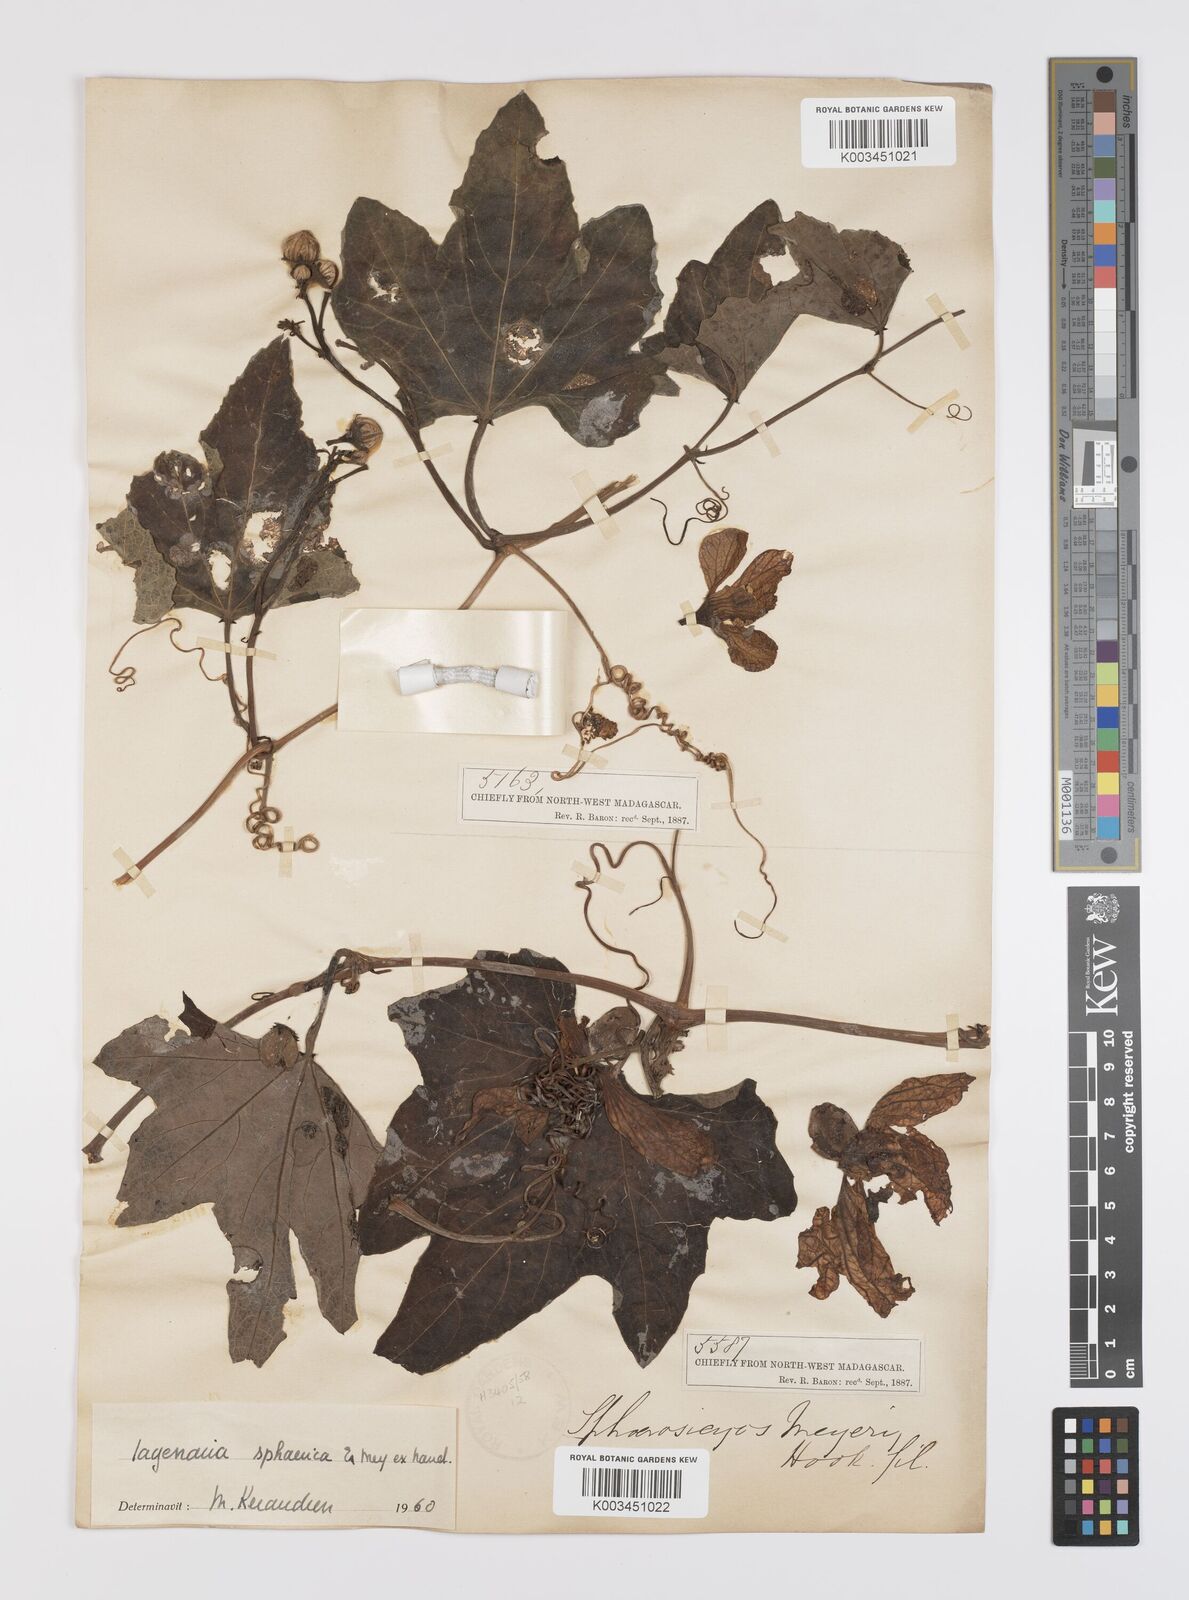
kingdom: Plantae
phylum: Tracheophyta
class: Magnoliopsida
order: Cucurbitales
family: Cucurbitaceae
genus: Lagenaria
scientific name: Lagenaria sphaerica
